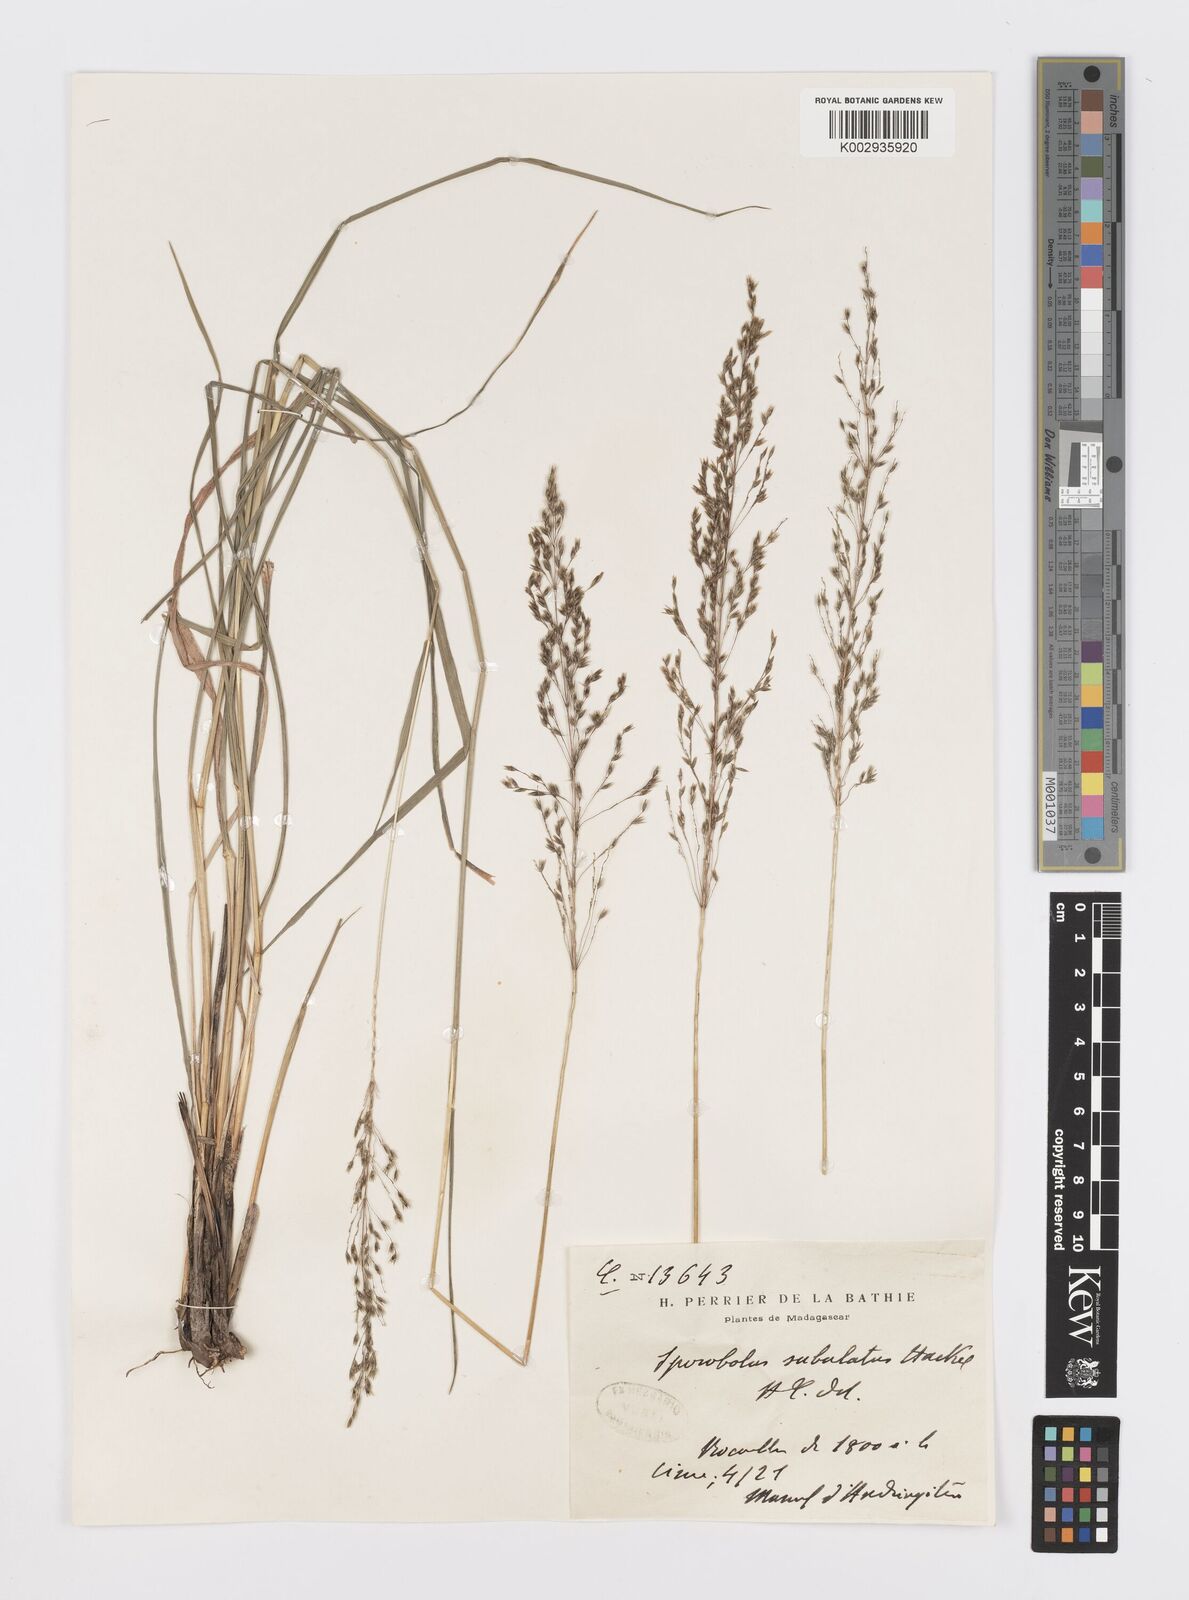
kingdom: Plantae
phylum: Tracheophyta
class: Liliopsida
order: Poales
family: Poaceae
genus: Sporobolus
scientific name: Sporobolus subulatus
